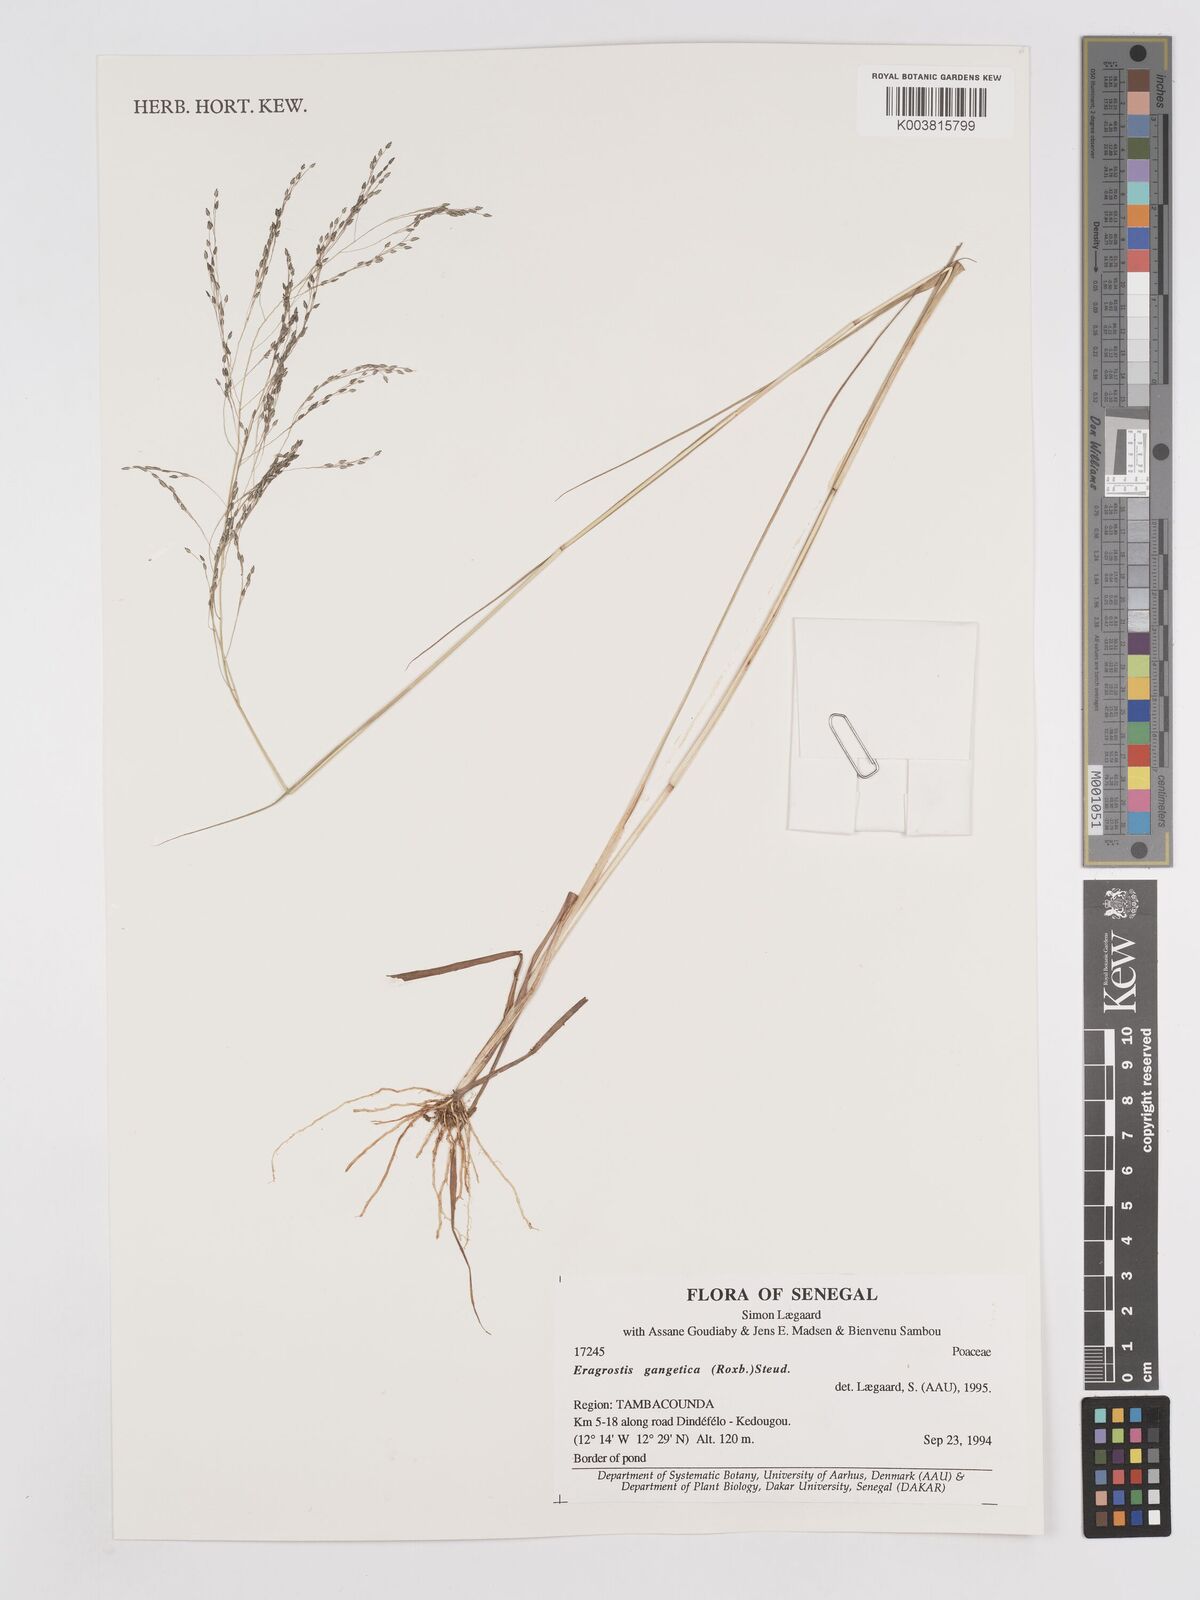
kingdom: Plantae
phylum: Tracheophyta
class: Liliopsida
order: Poales
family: Poaceae
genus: Eragrostis
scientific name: Eragrostis gangetica
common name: Slimflower lovegrass
